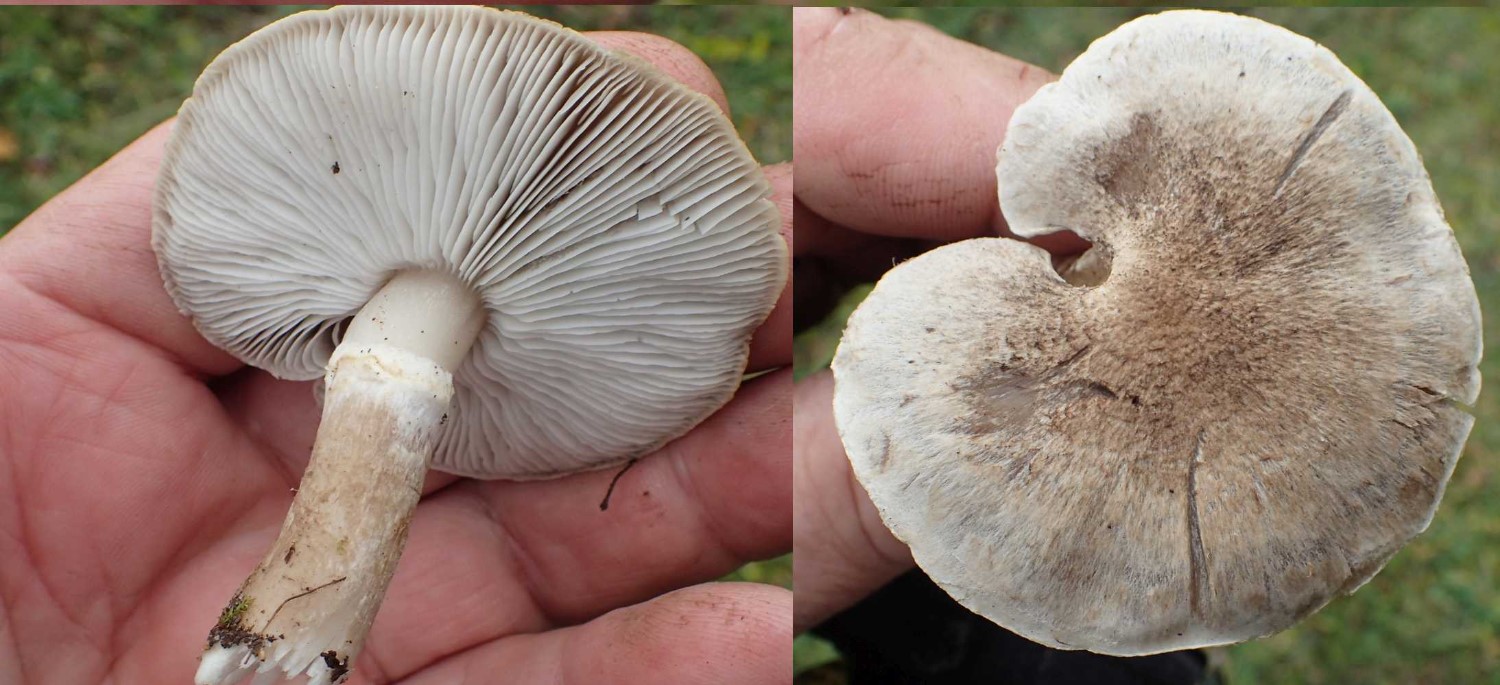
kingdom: Fungi
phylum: Basidiomycota
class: Agaricomycetes
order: Agaricales
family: Tricholomataceae
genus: Tricholoma
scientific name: Tricholoma cingulatum
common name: ring-ridderhat
